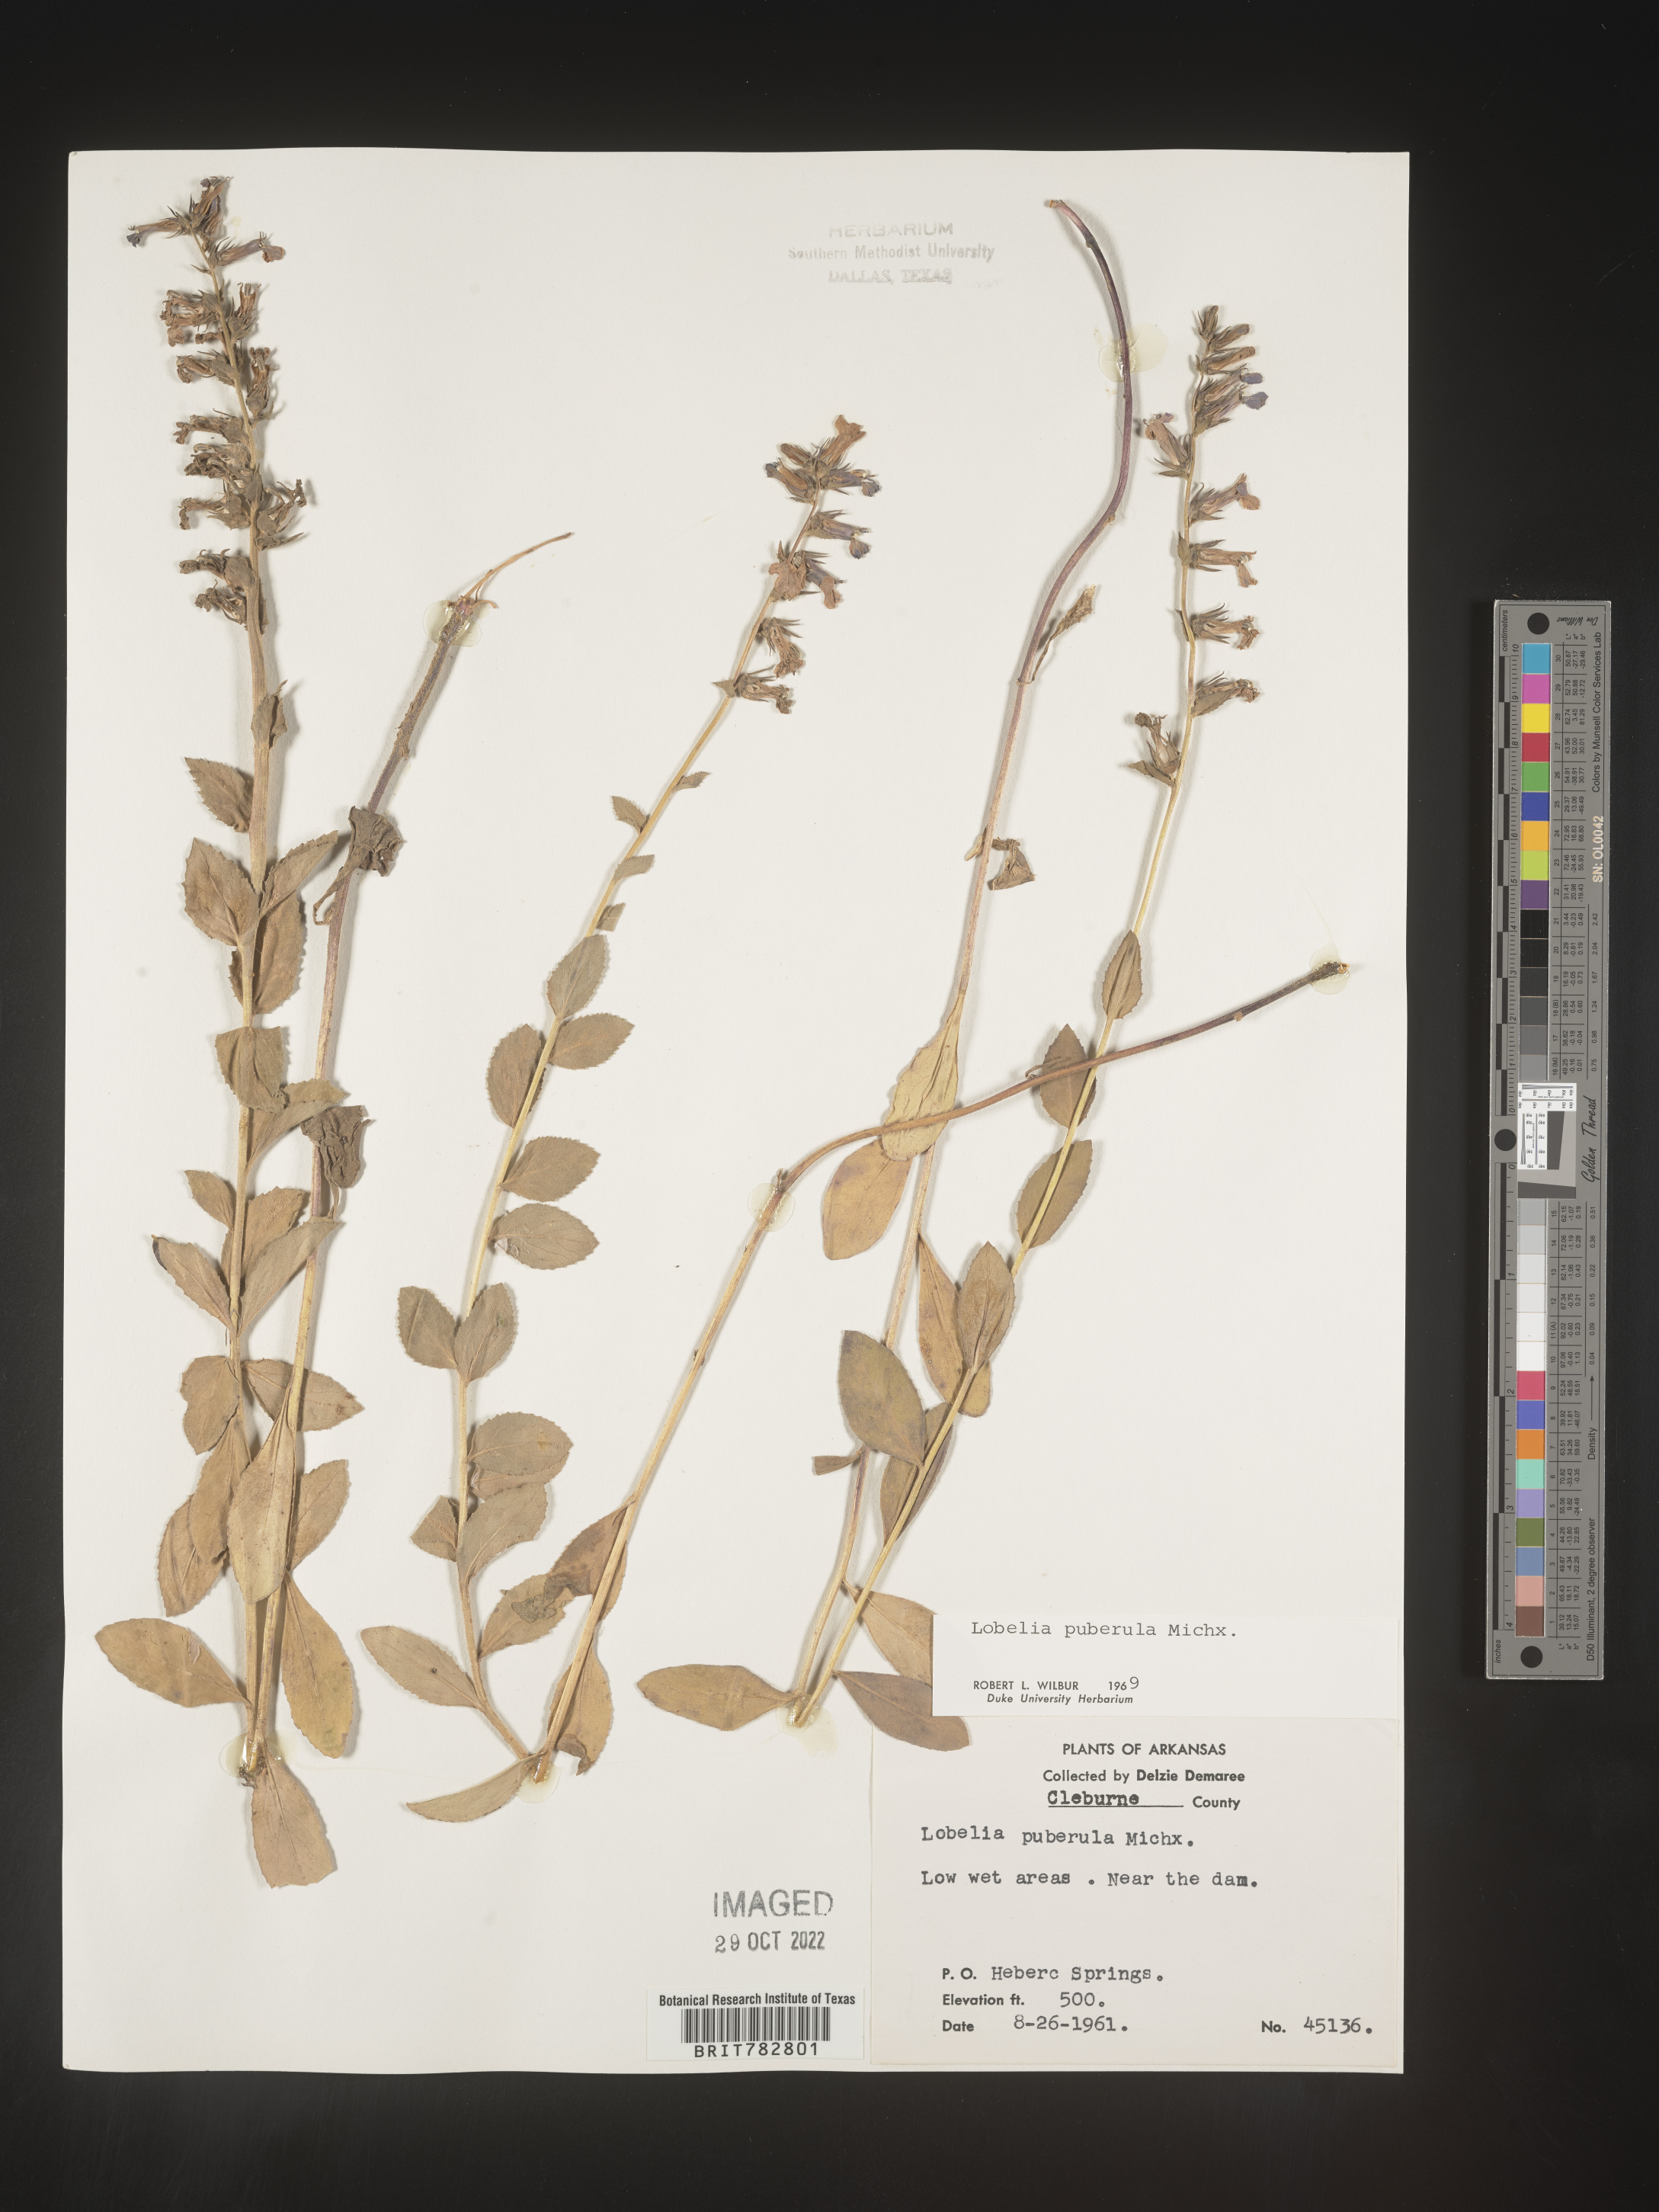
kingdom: Plantae
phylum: Tracheophyta
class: Magnoliopsida
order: Asterales
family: Campanulaceae
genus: Lobelia
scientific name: Lobelia puberula
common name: Purple dewdrop
